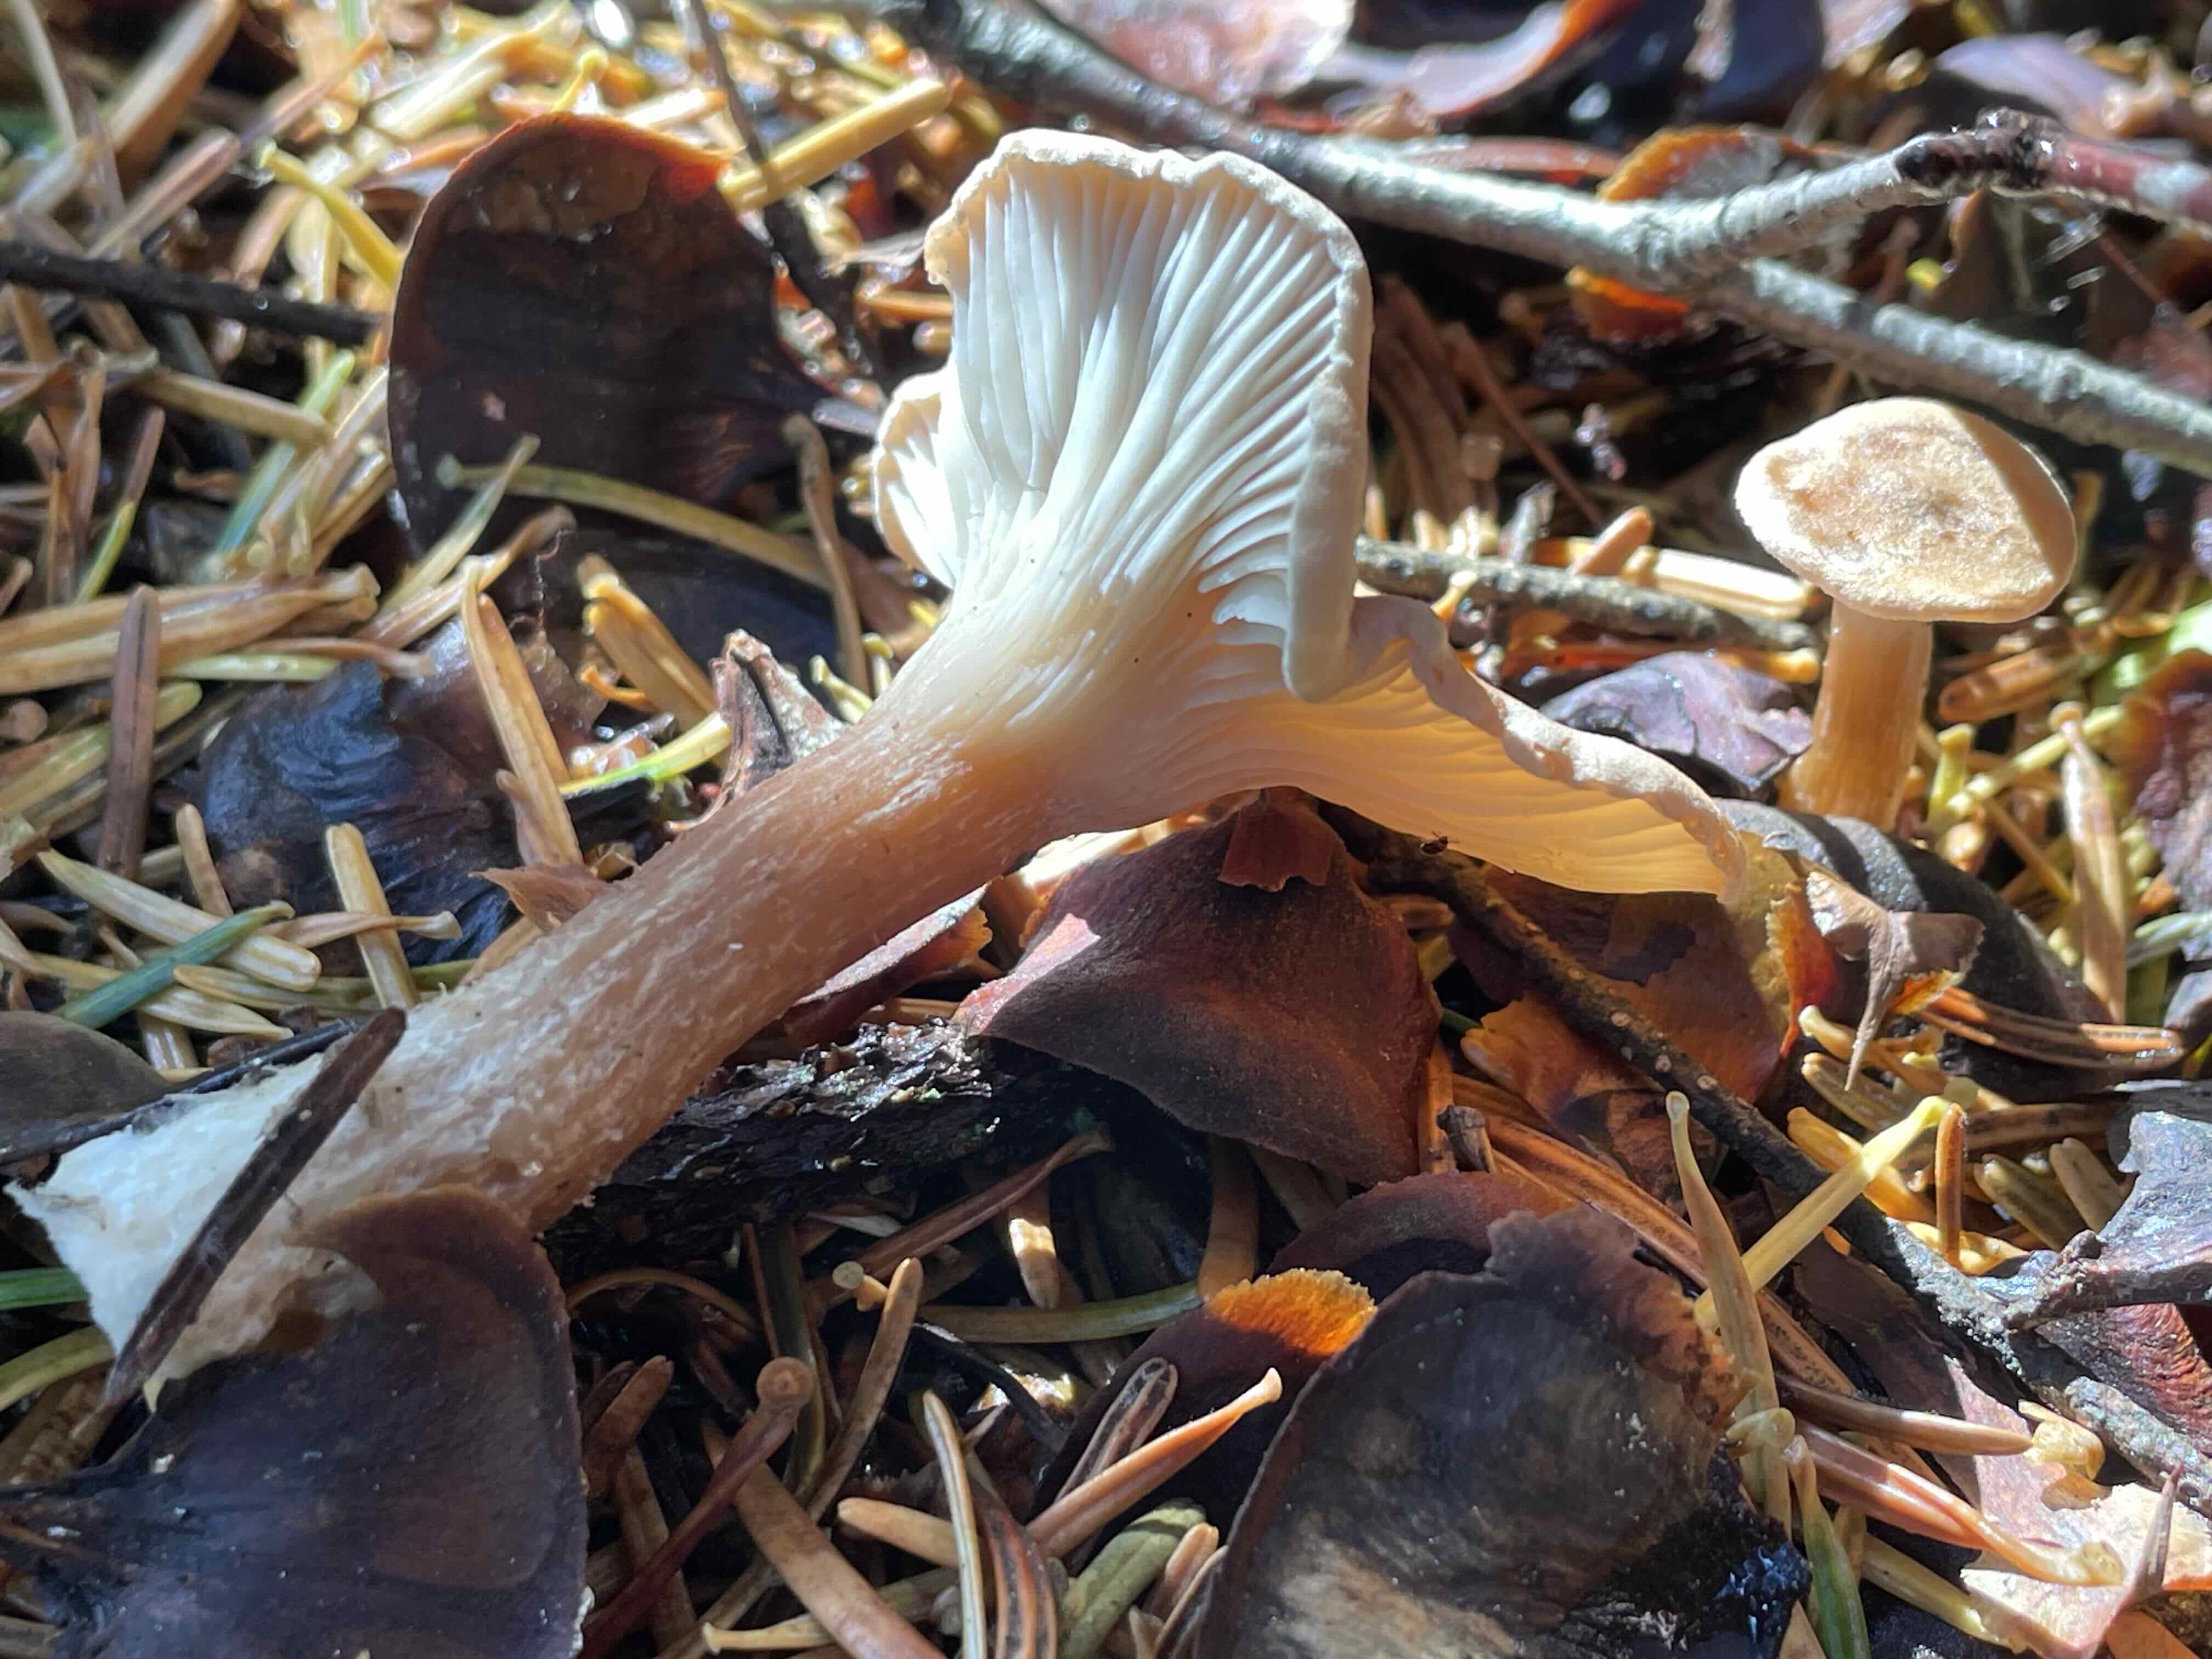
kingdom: Fungi
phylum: Basidiomycota
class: Agaricomycetes
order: Agaricales
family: Tricholomataceae
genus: Infundibulicybe
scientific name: Infundibulicybe squamulosa
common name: småskællet tragthat
